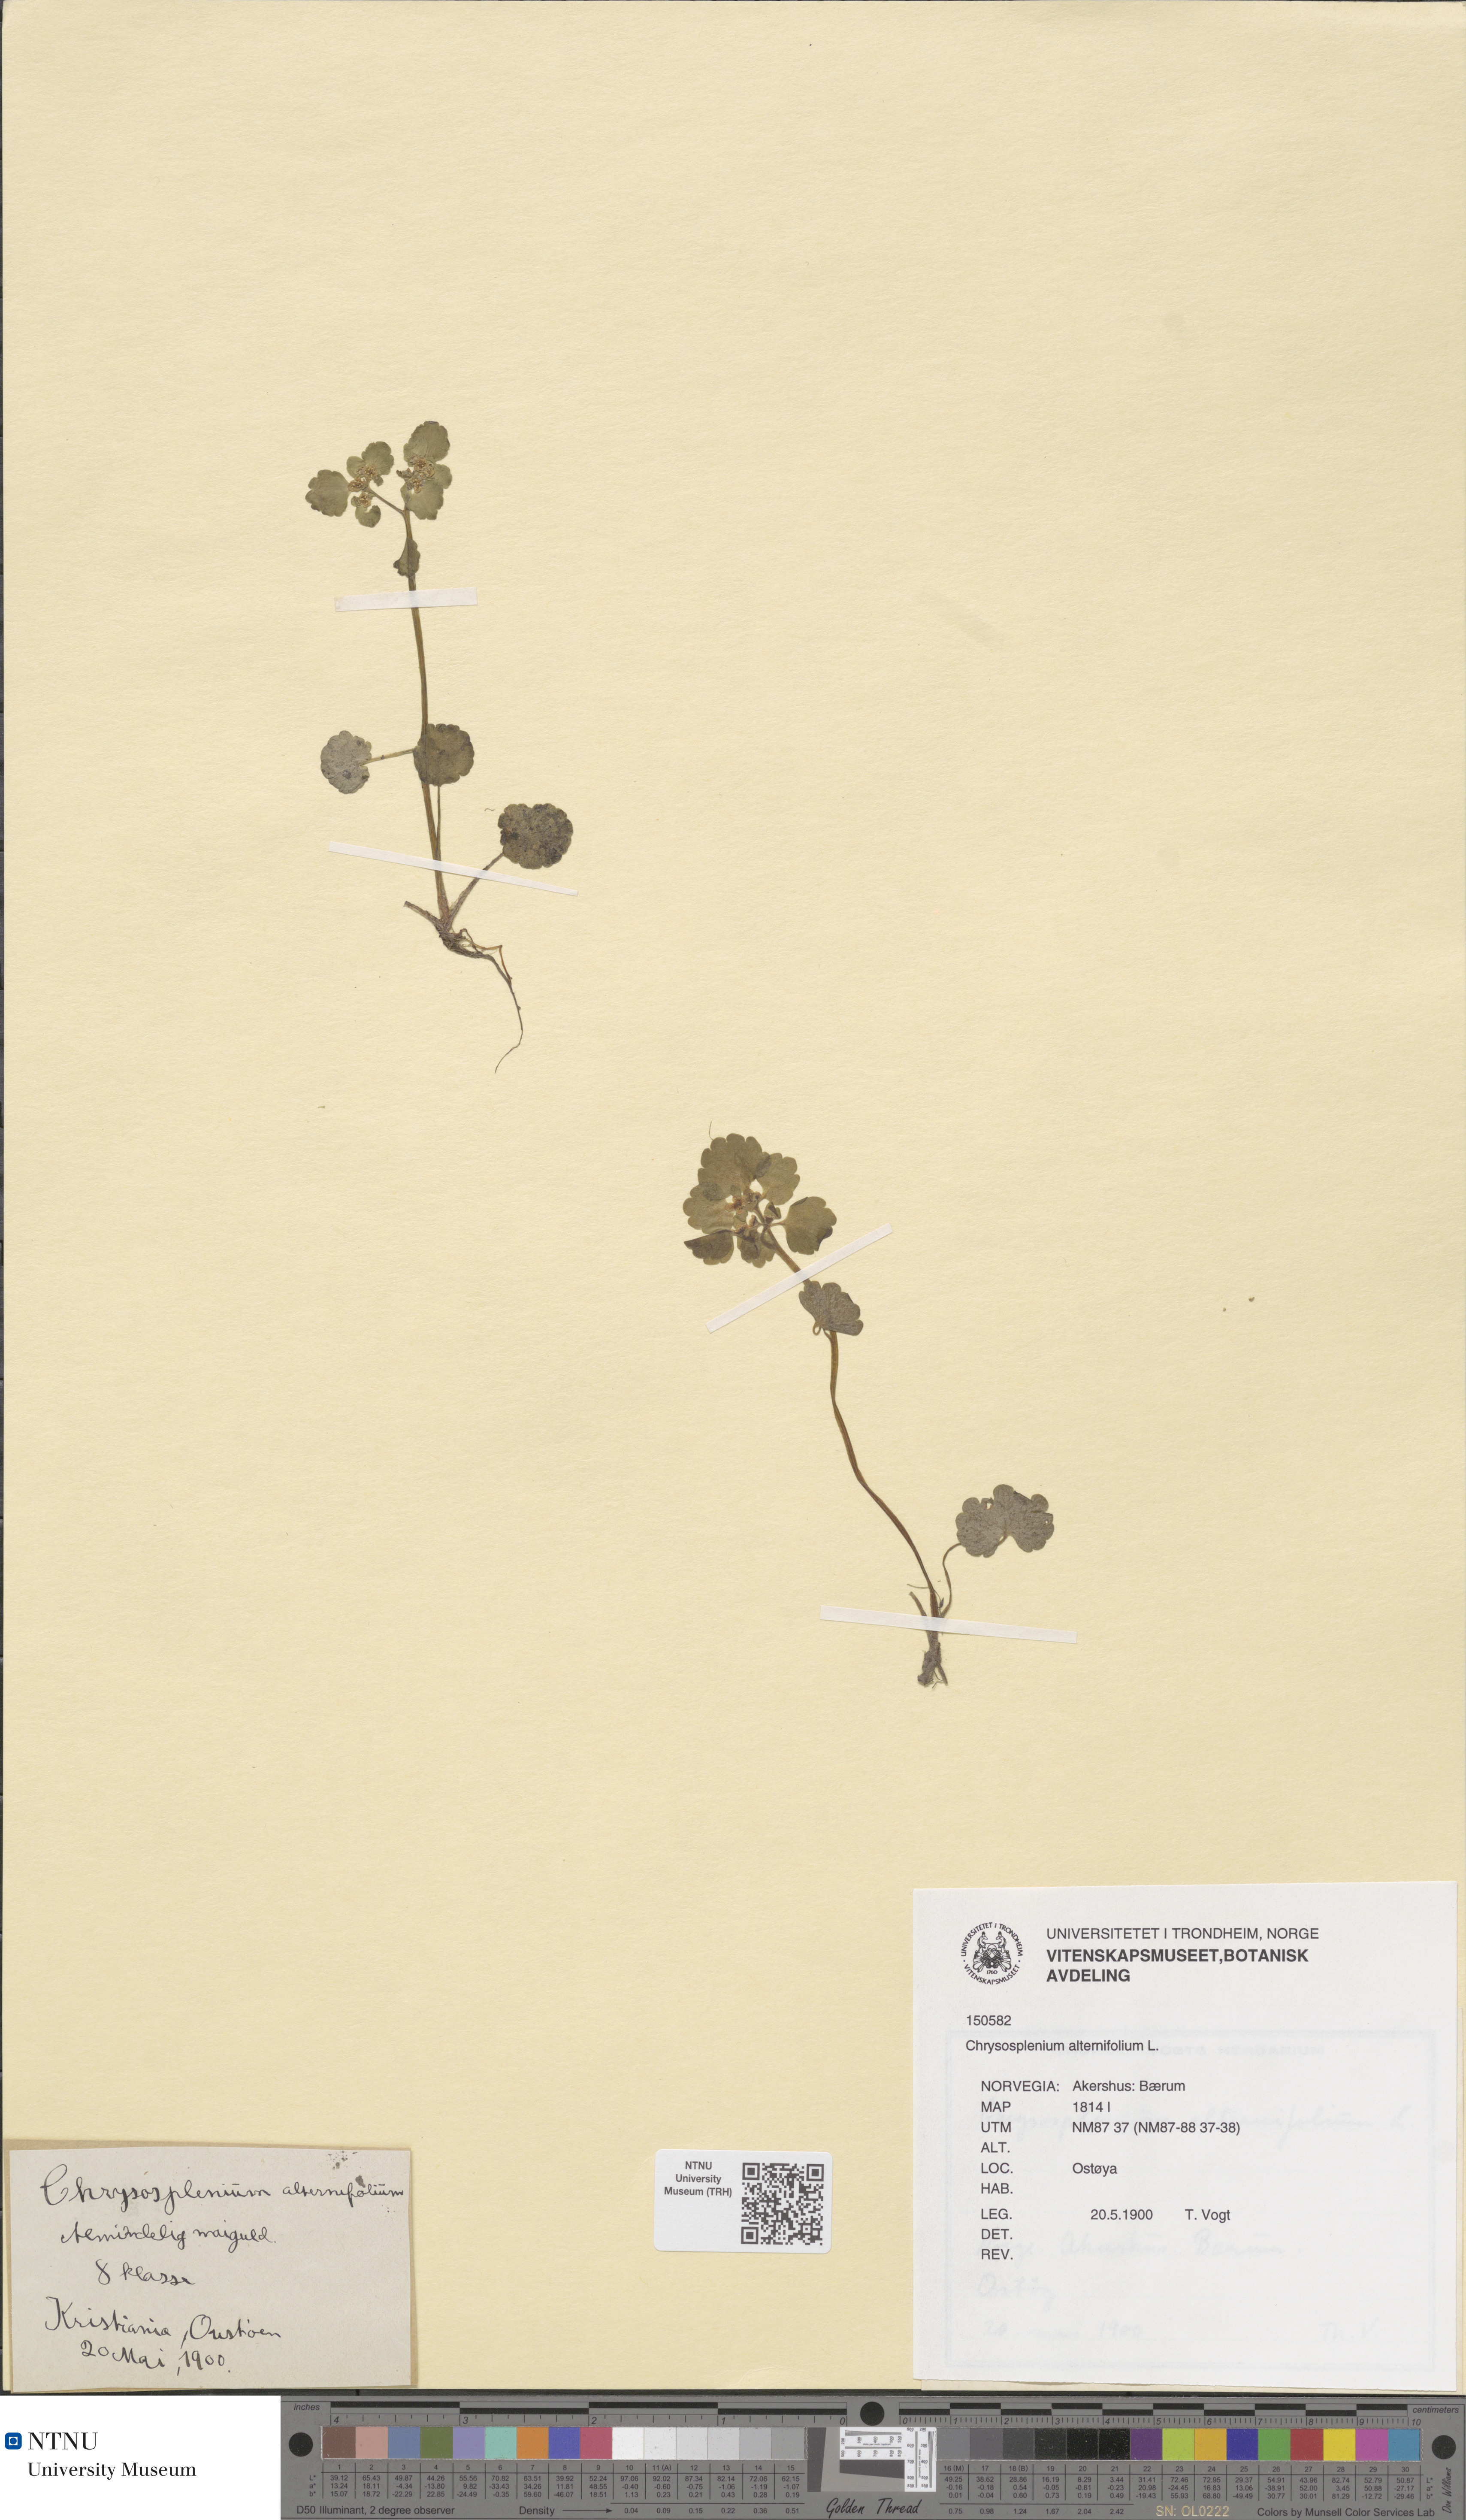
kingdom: Plantae
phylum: Tracheophyta
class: Magnoliopsida
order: Saxifragales
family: Saxifragaceae
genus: Chrysosplenium
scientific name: Chrysosplenium alternifolium
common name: Alternate-leaved golden-saxifrage
